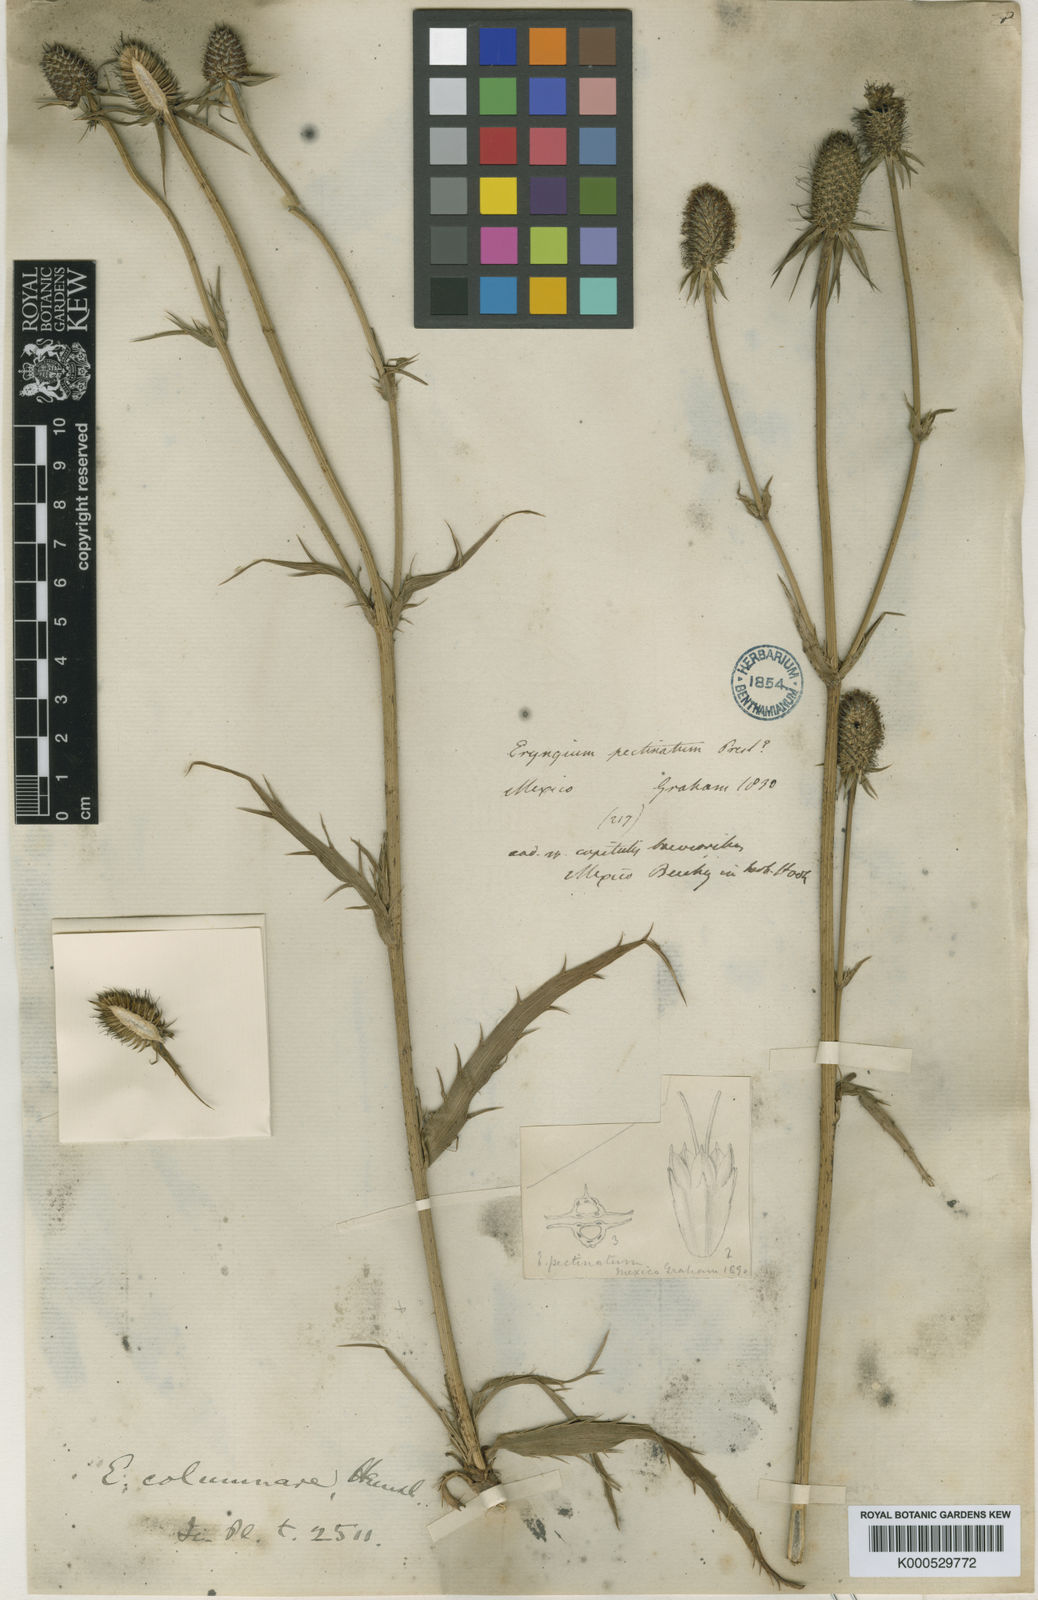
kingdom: Plantae
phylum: Tracheophyta
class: Magnoliopsida
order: Apiales
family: Apiaceae
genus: Eryngium
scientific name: Eryngium columnare
